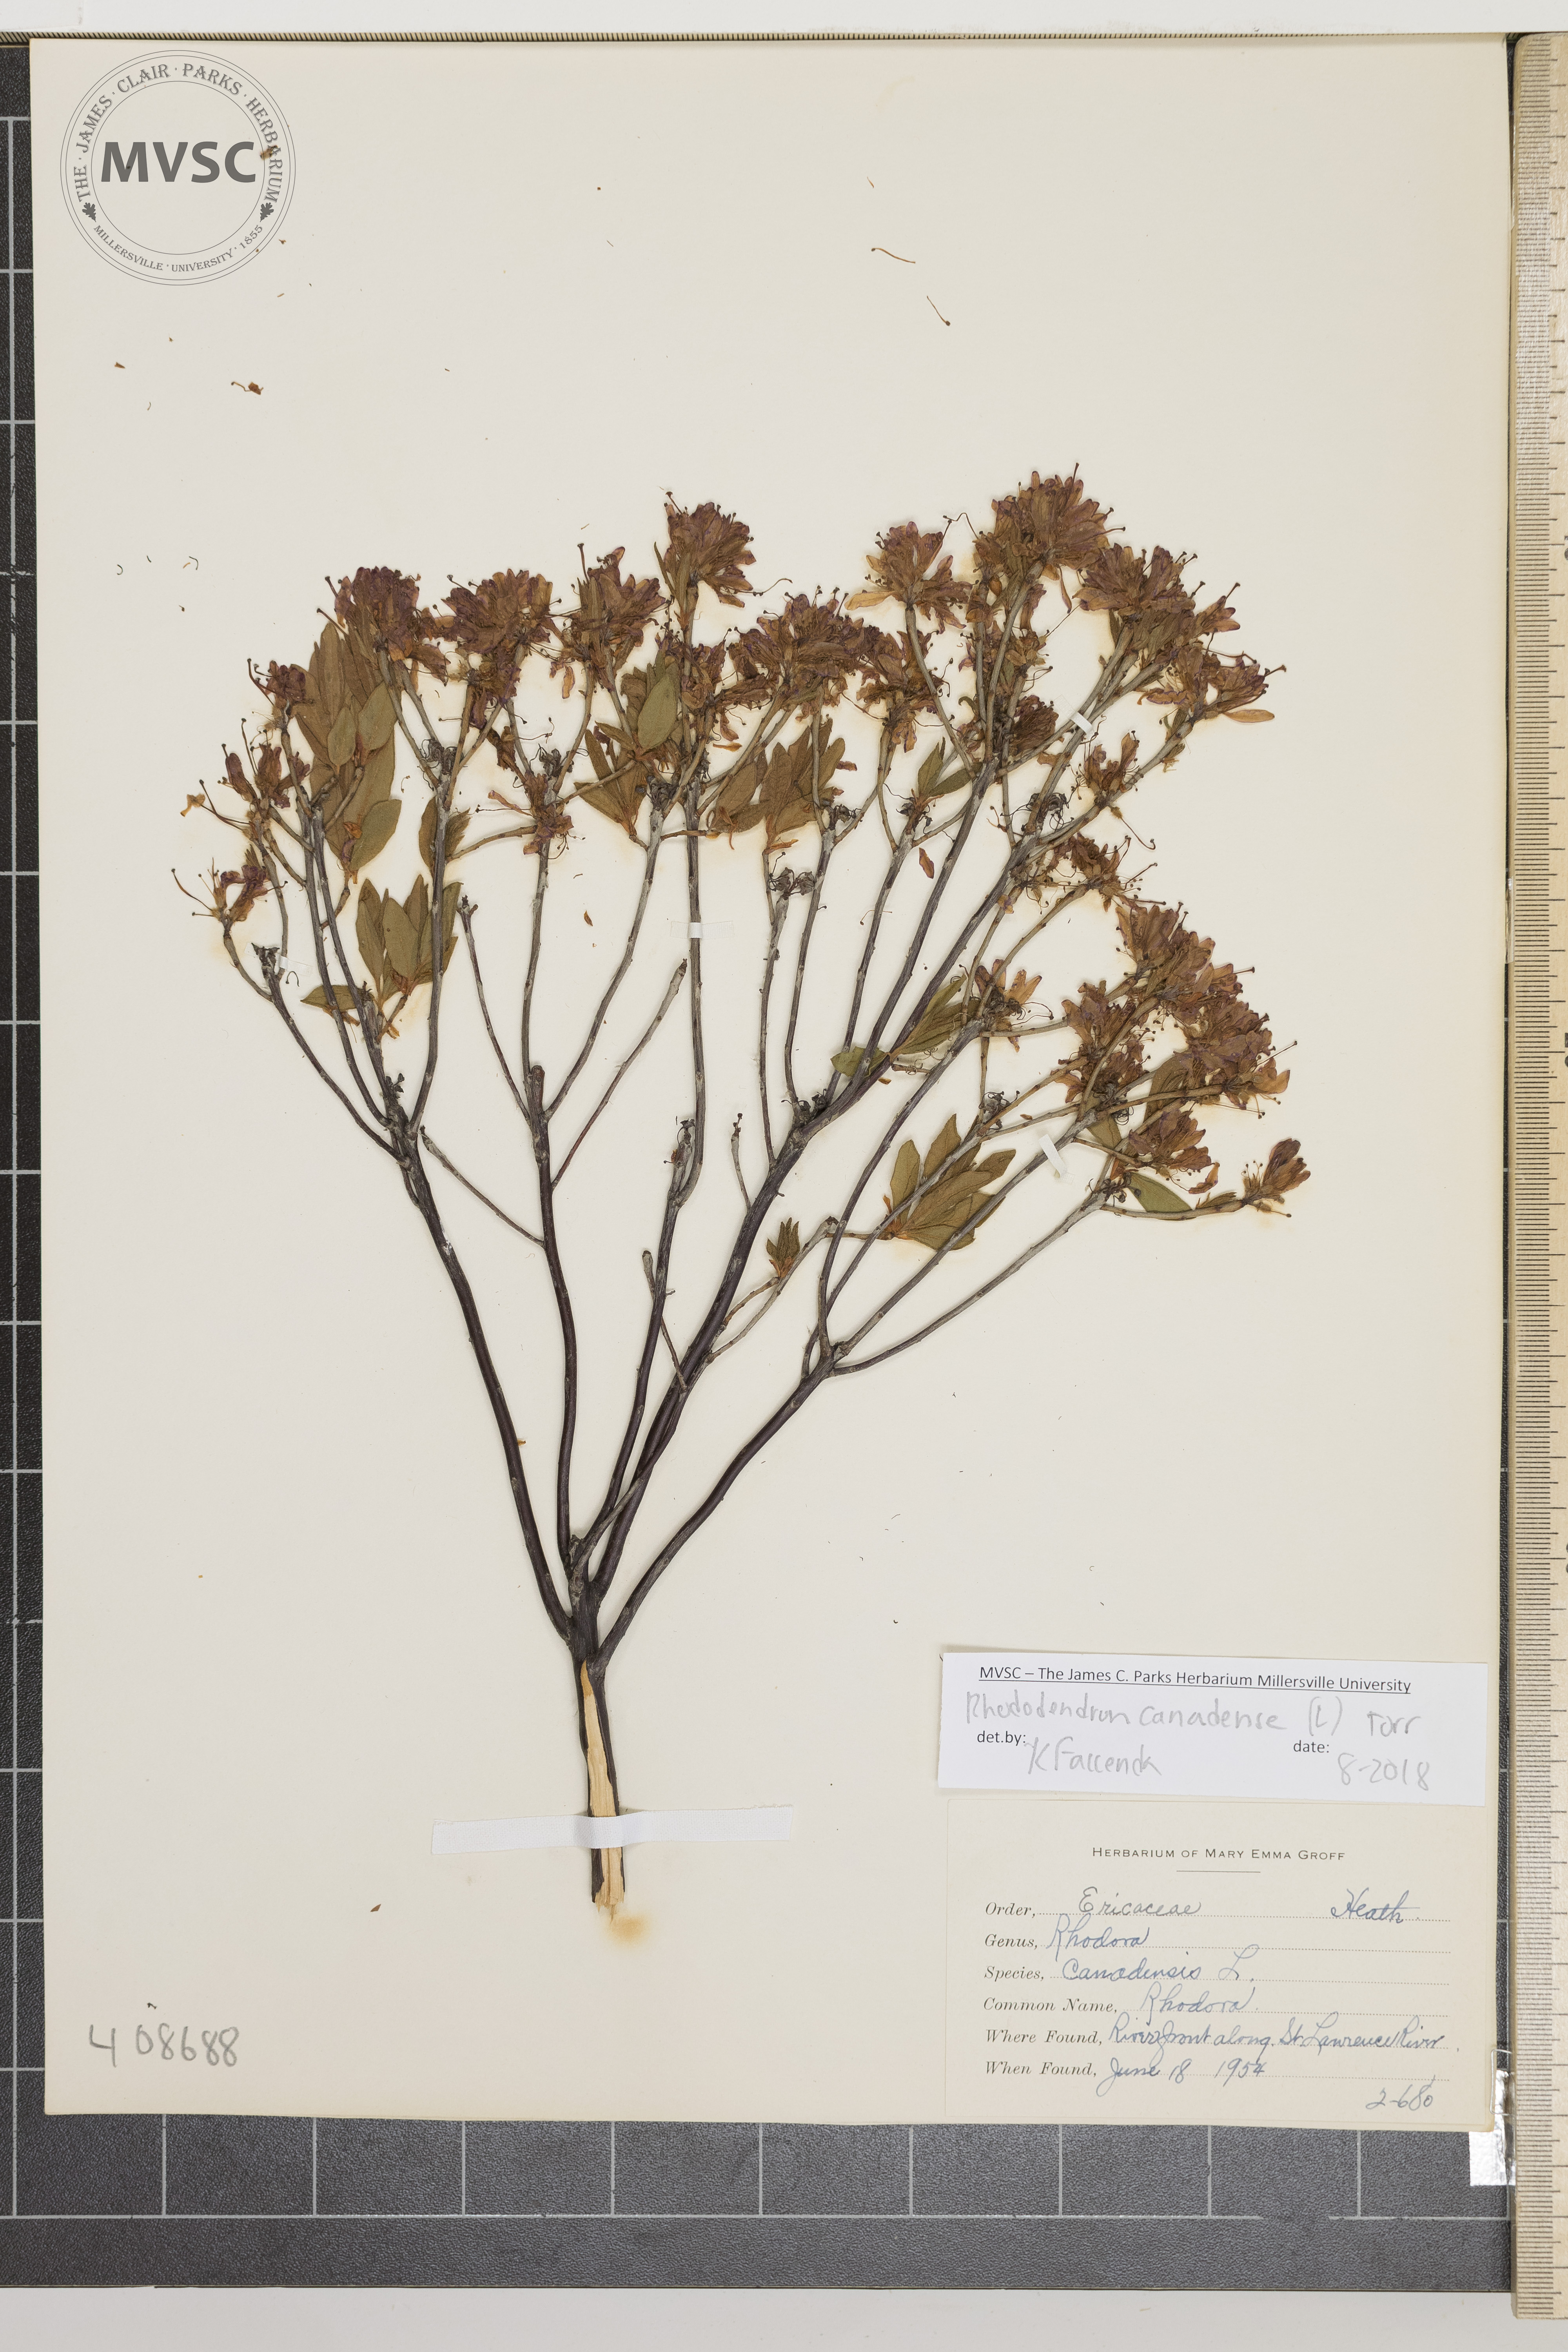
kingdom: Plantae
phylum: Tracheophyta
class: Magnoliopsida
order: Ericales
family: Ericaceae
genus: Rhododendron
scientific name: Rhododendron canadense
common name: Rhodora
